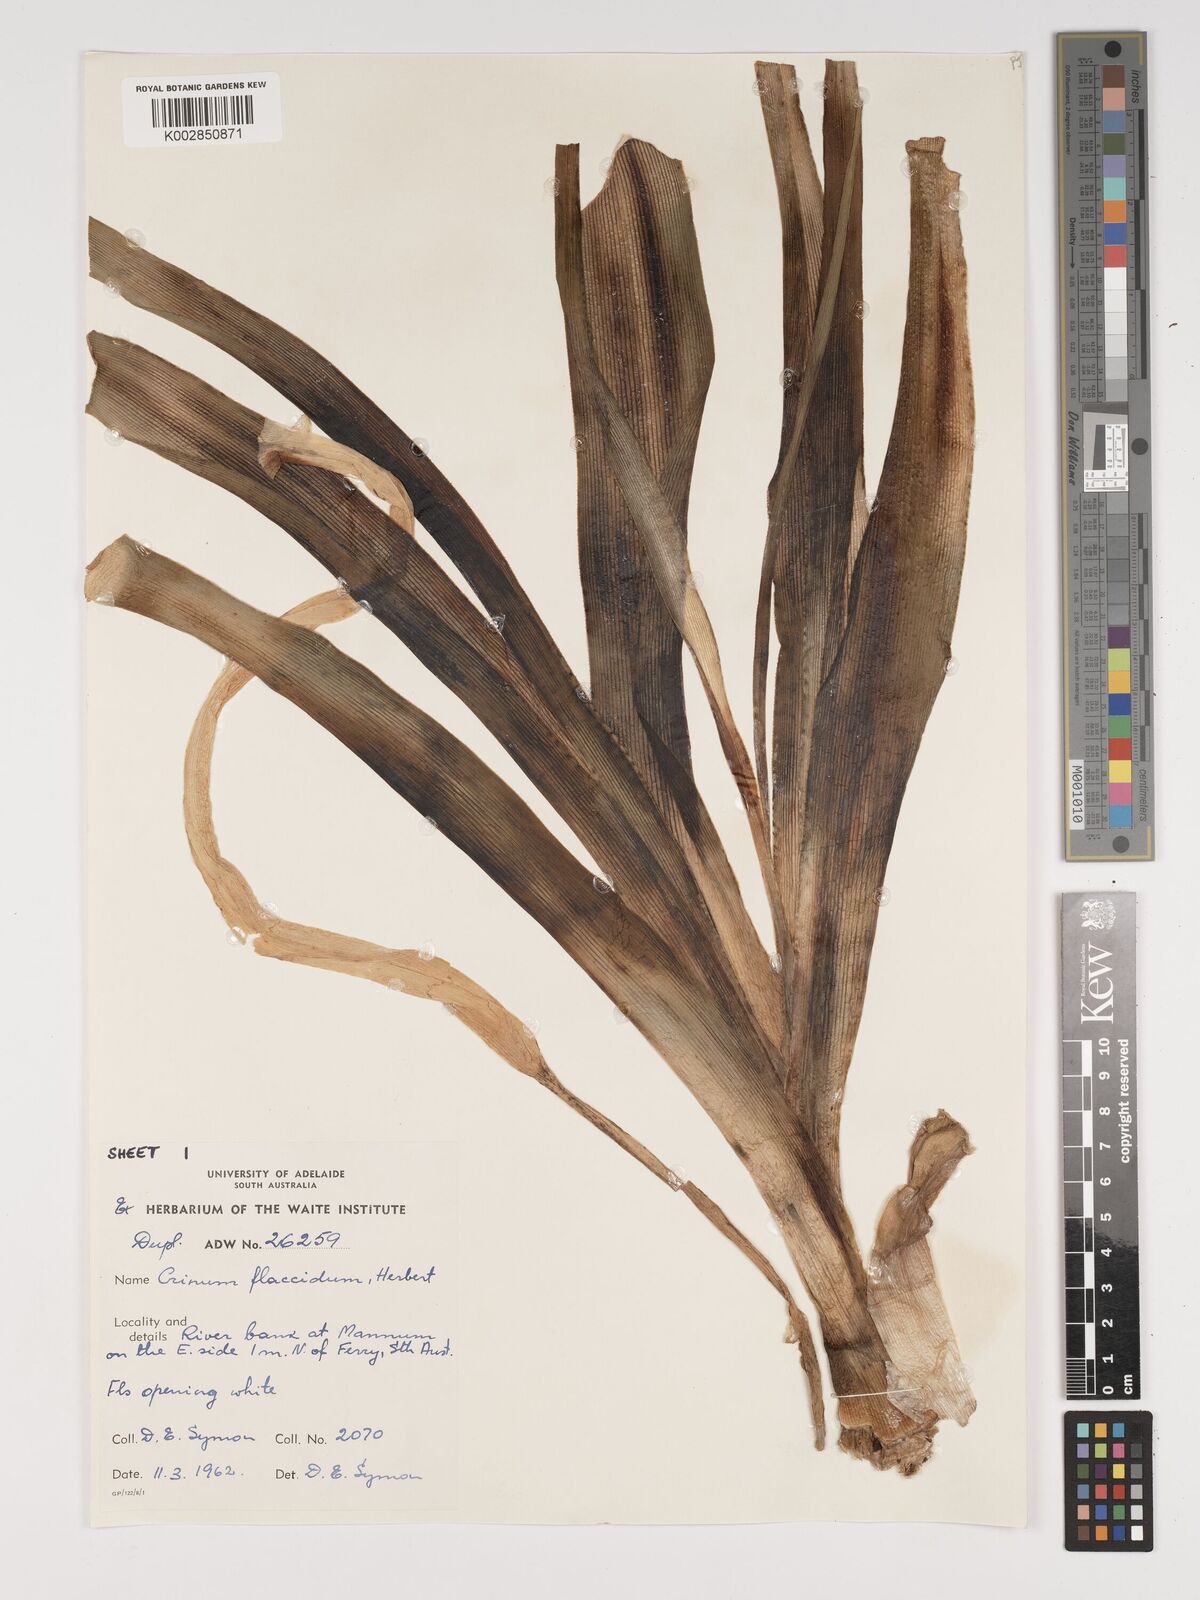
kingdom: Plantae
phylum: Tracheophyta
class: Liliopsida
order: Asparagales
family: Amaryllidaceae
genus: Crinum
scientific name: Crinum flaccidum
